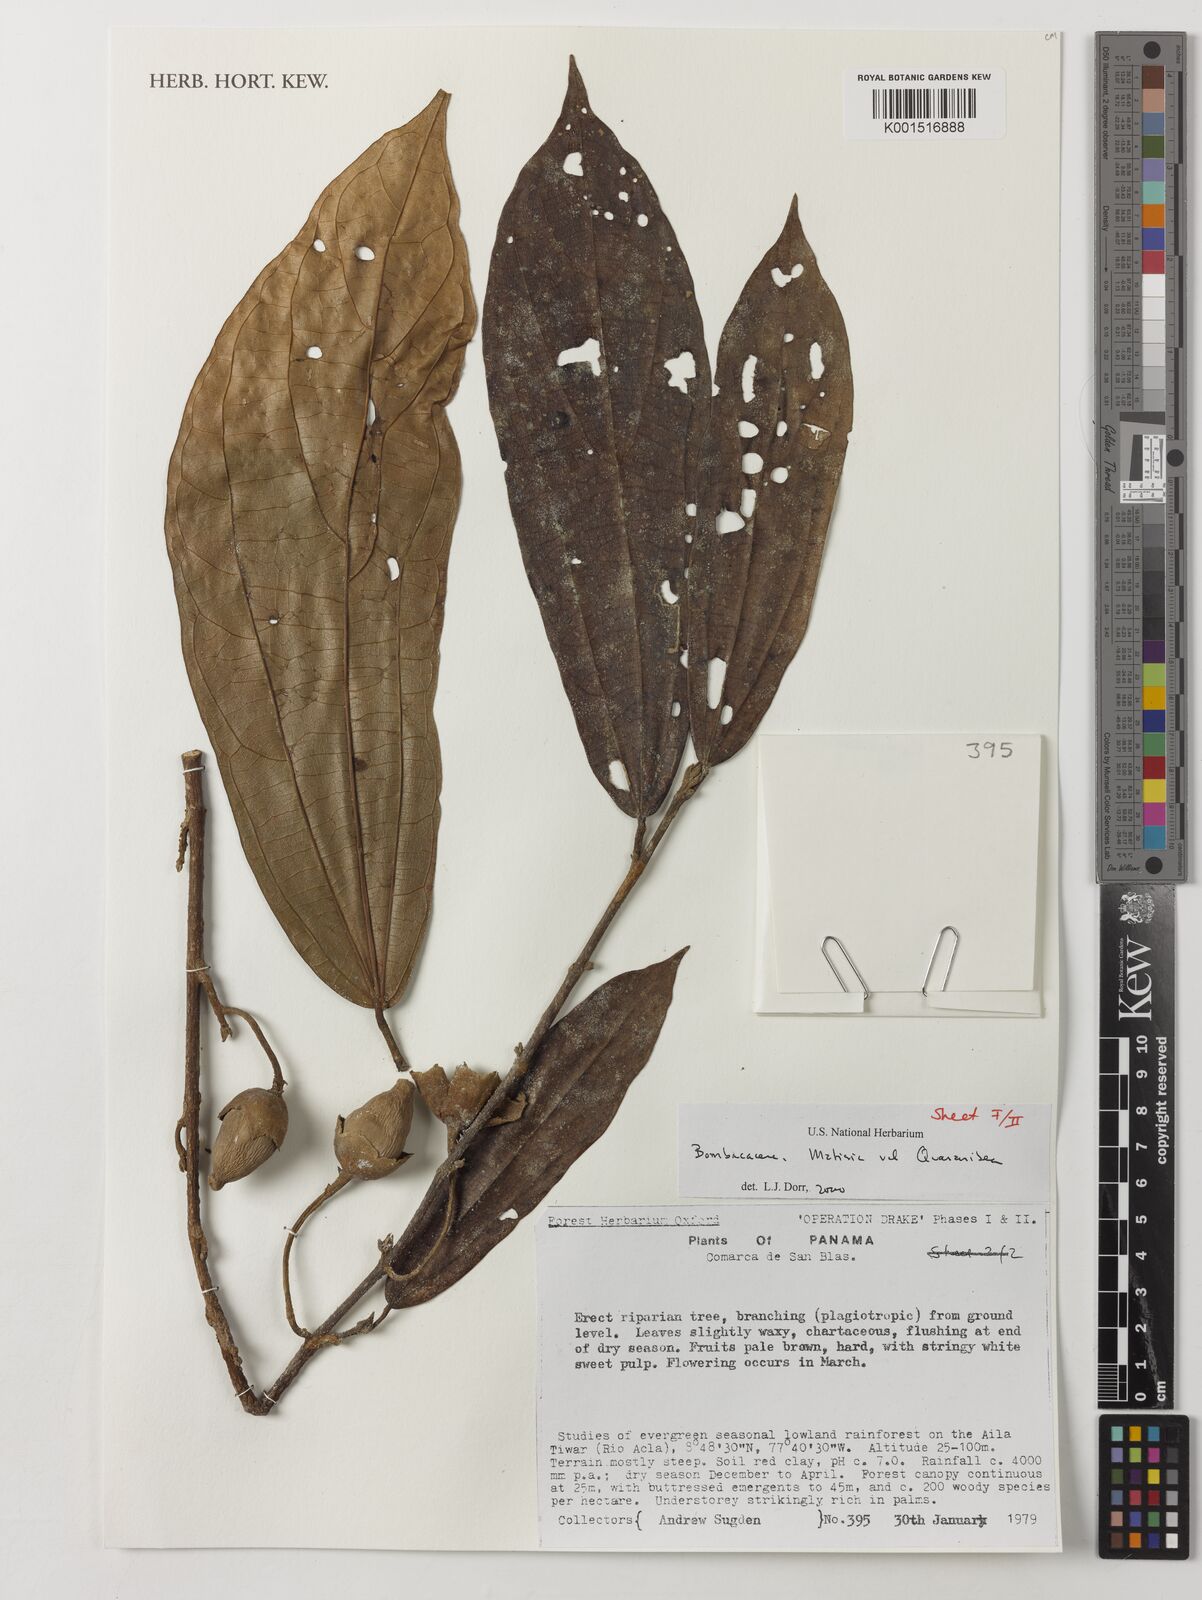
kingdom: Plantae
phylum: Tracheophyta
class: Magnoliopsida
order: Malvales
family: Malvaceae
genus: Matisia
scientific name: Matisia
